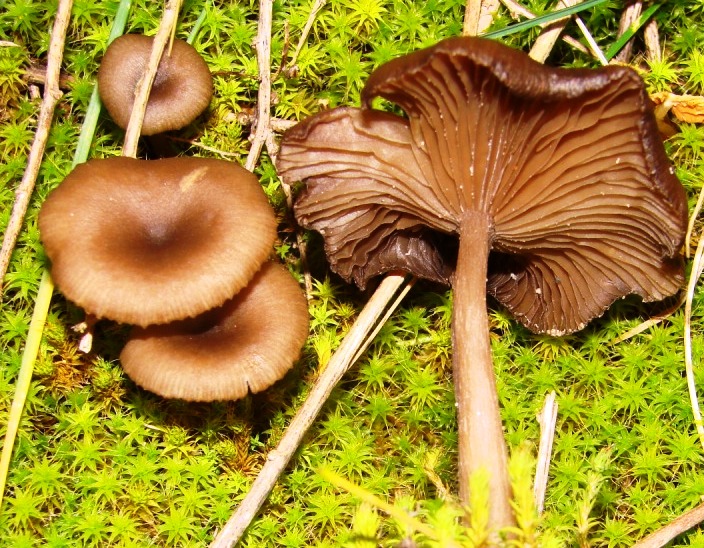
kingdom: Fungi
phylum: Basidiomycota
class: Agaricomycetes
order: Agaricales
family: Pseudoclitocybaceae
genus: Pseudoclitocybe
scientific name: Pseudoclitocybe cyathiformis
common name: almindelig bægertragthat
